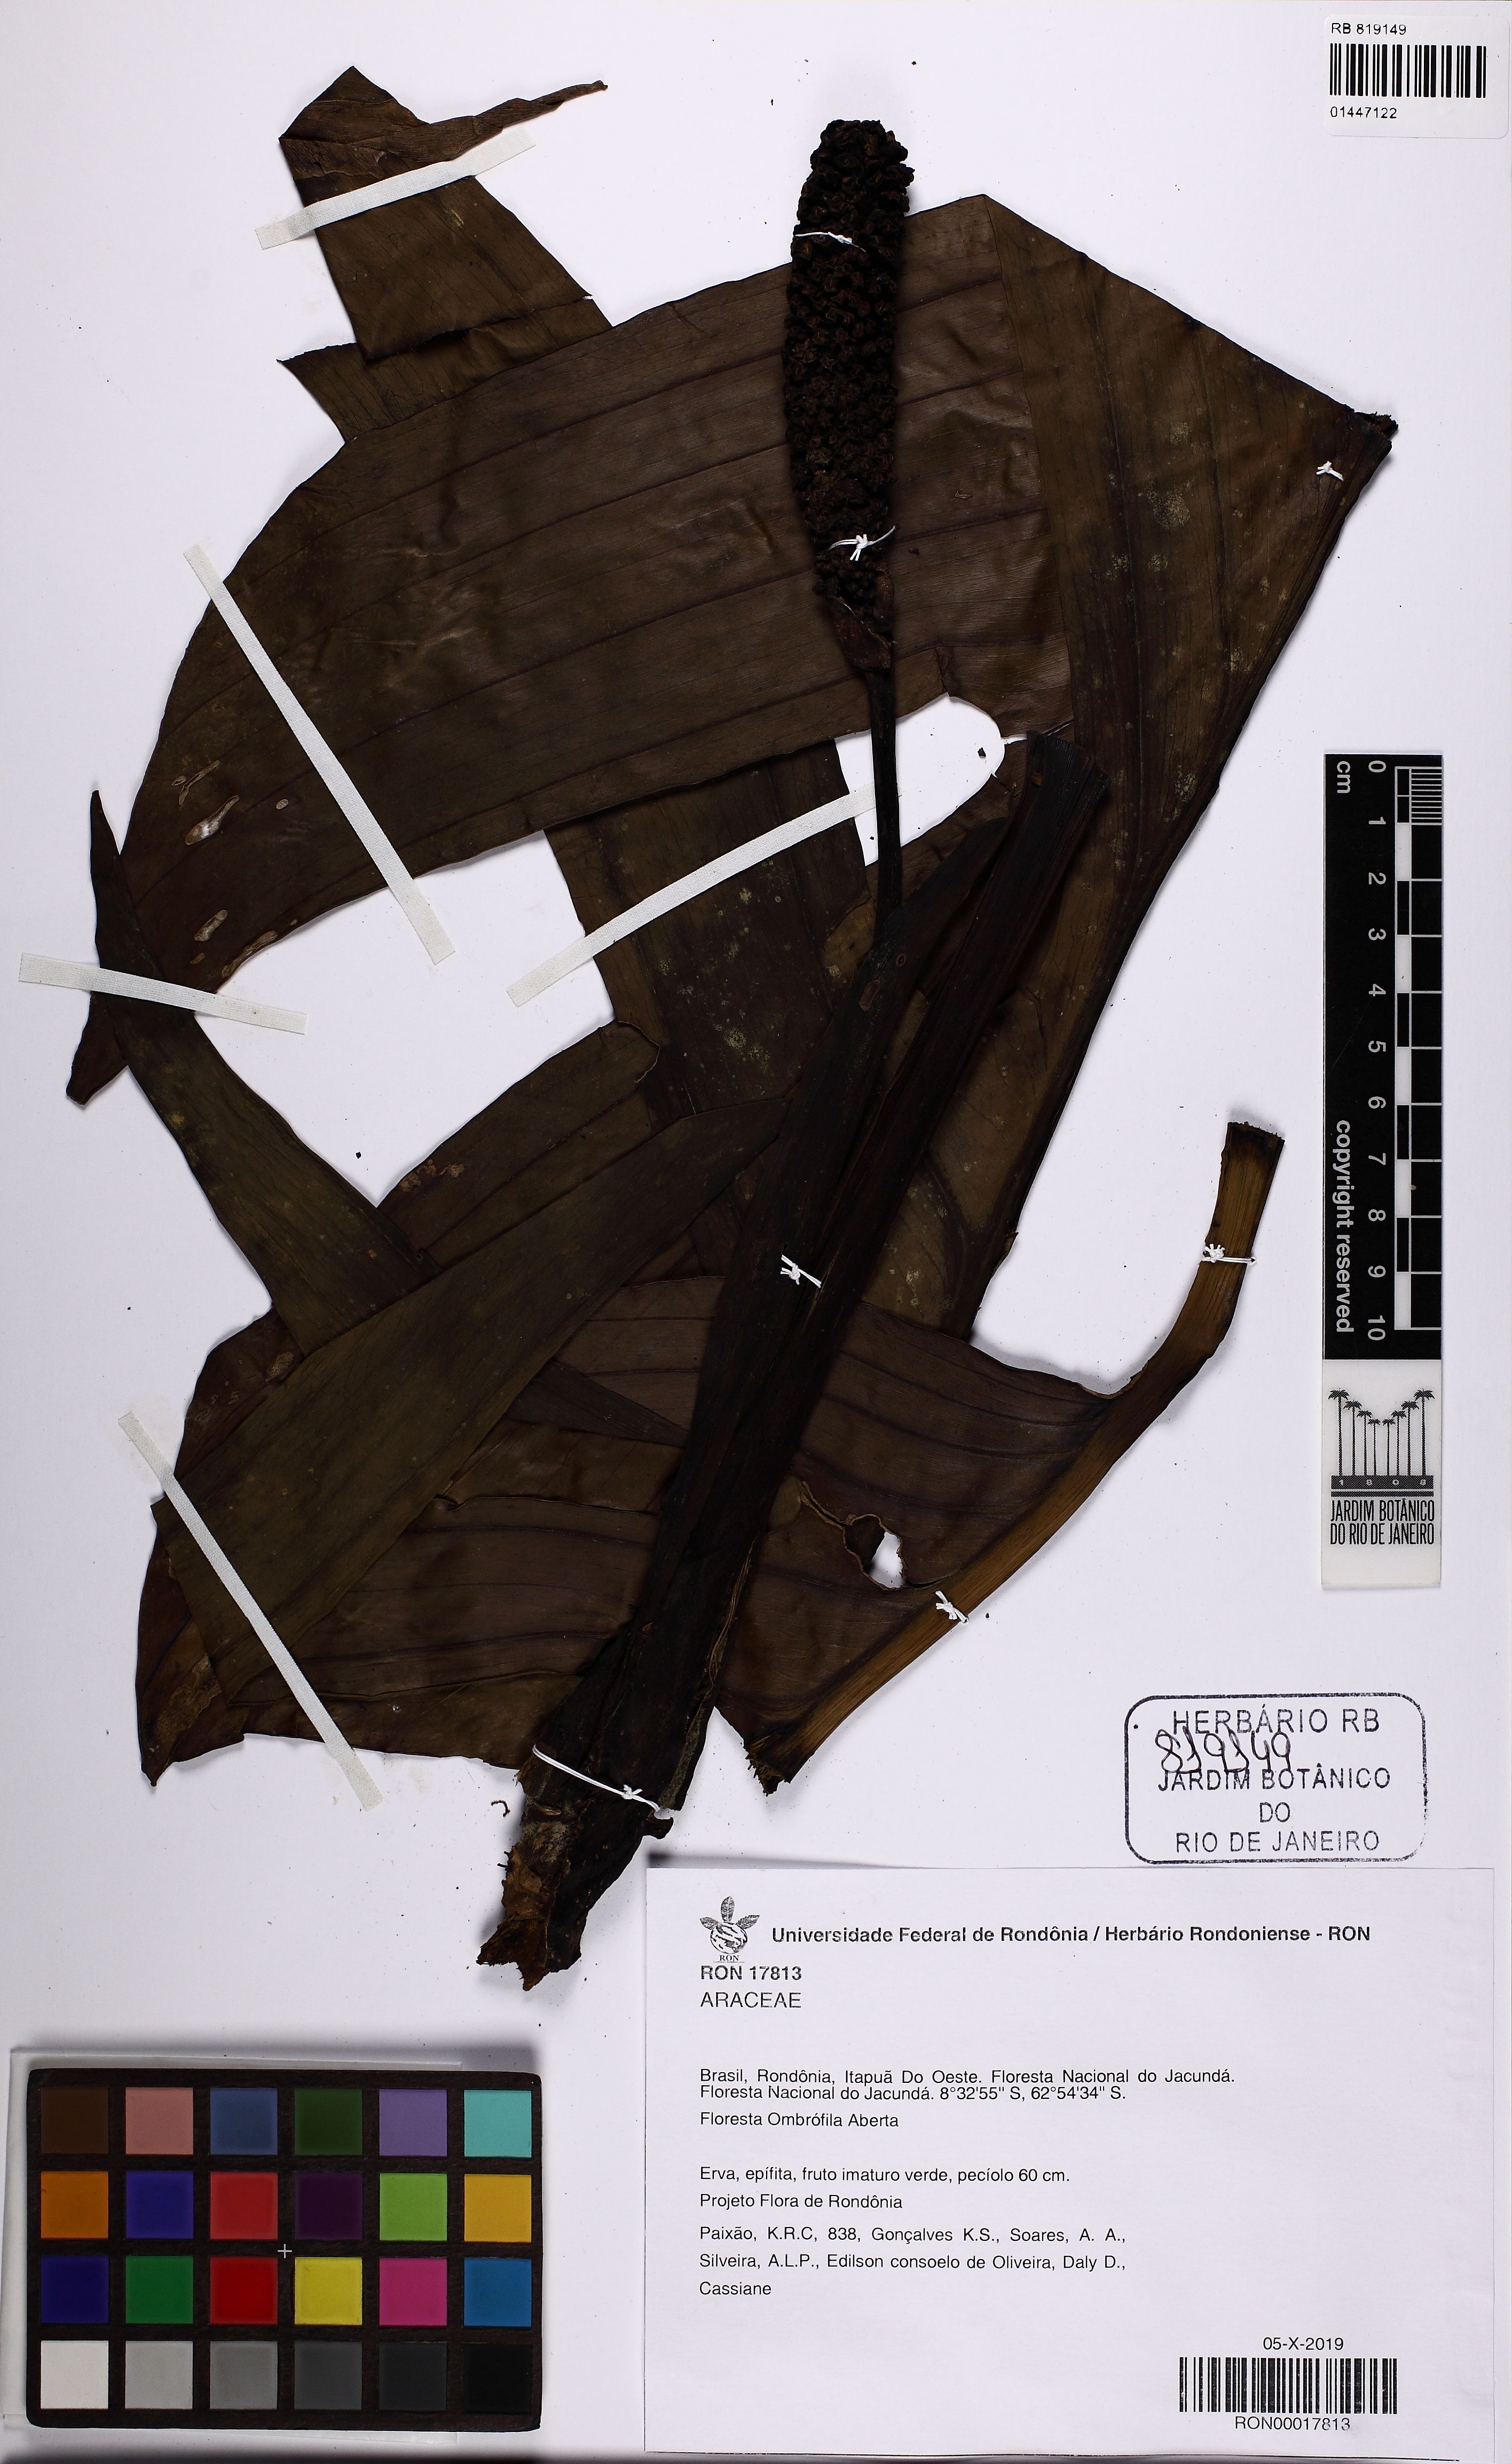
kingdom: Plantae
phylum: Tracheophyta
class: Liliopsida
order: Alismatales
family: Araceae
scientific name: Araceae
